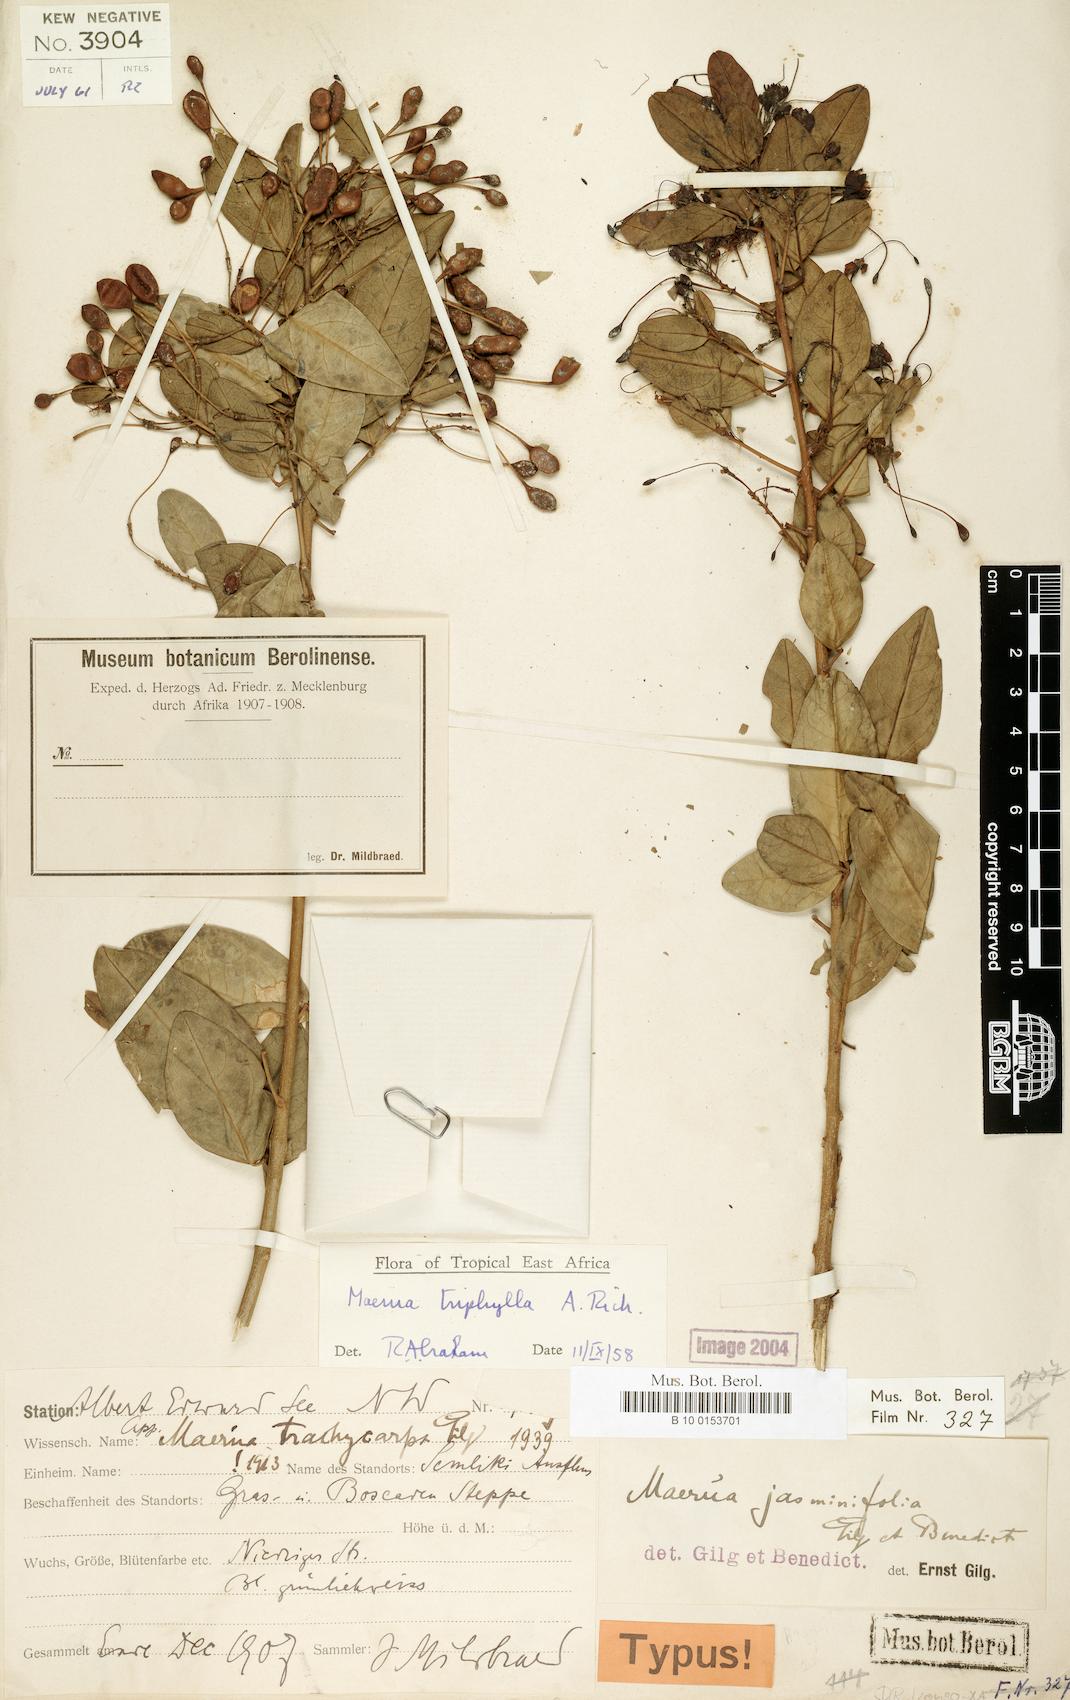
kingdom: Plantae
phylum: Tracheophyta
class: Magnoliopsida
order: Brassicales
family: Capparaceae
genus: Maerua
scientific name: Maerua triphylla
